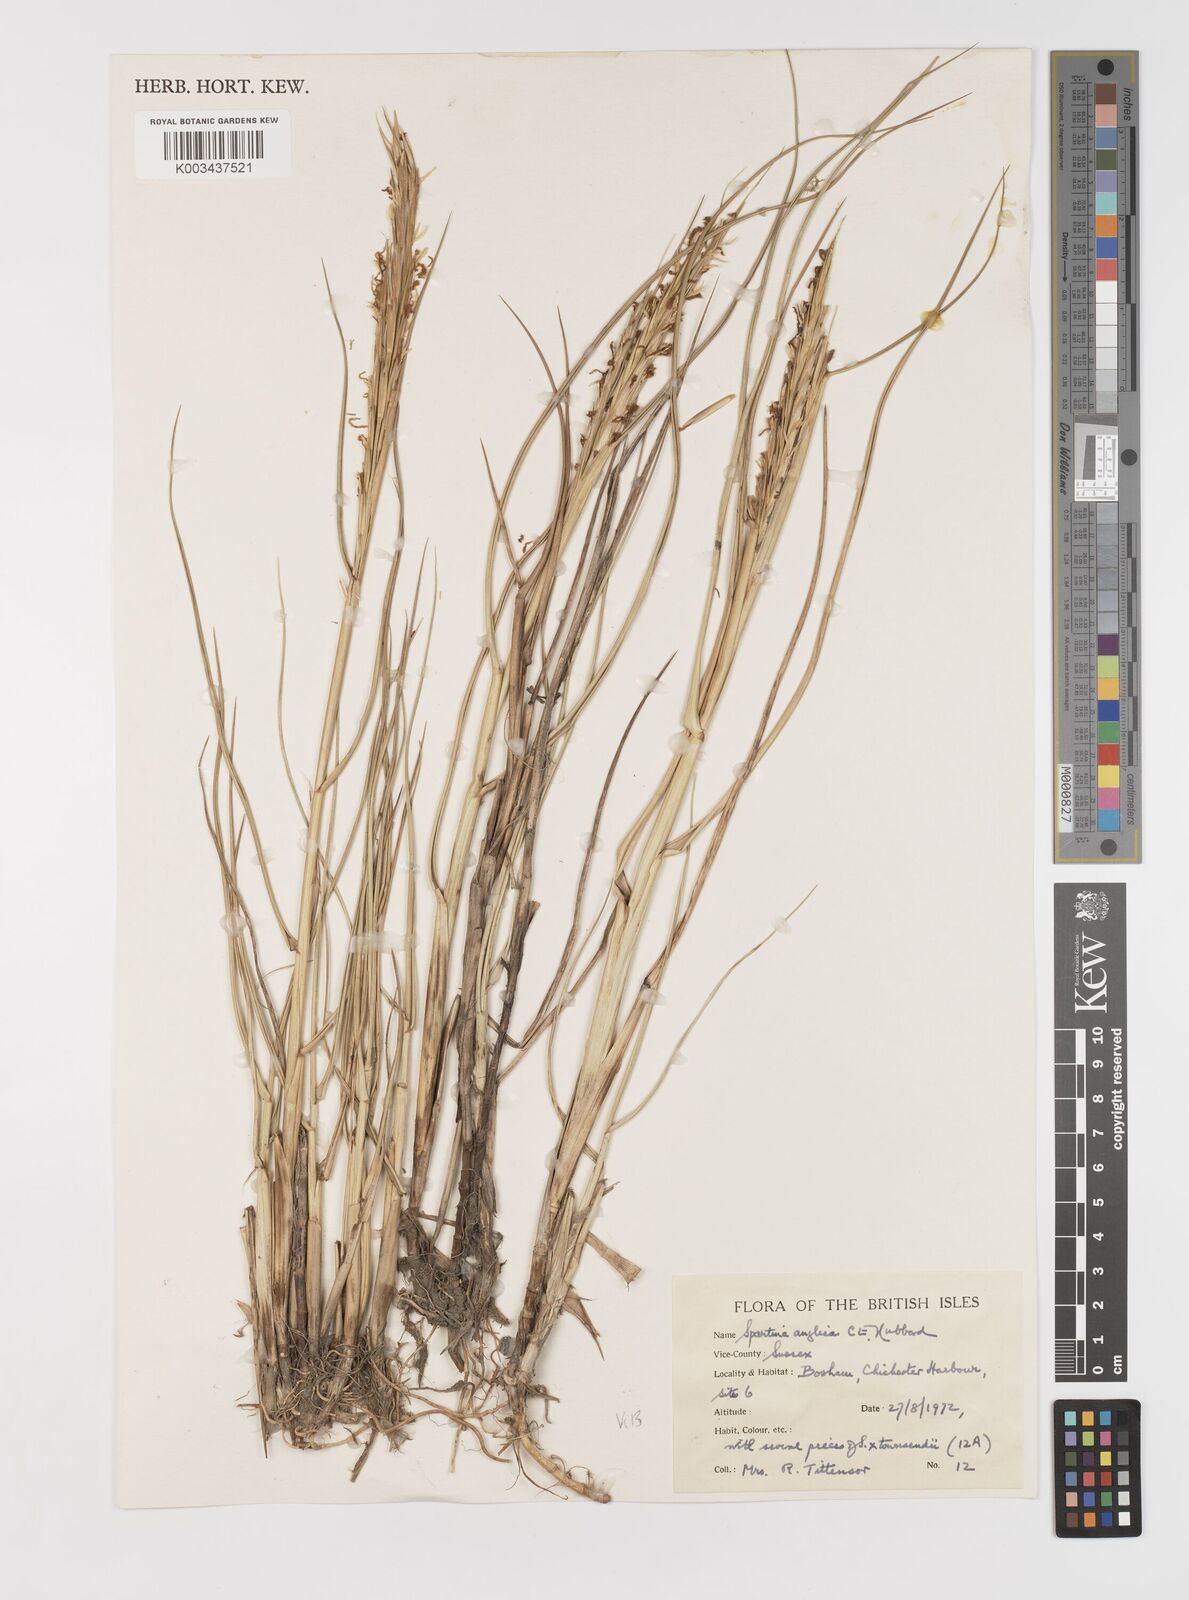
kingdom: Plantae
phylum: Tracheophyta
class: Liliopsida
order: Poales
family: Poaceae
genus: Sporobolus
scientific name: Sporobolus anglicus
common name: English cordgrass
